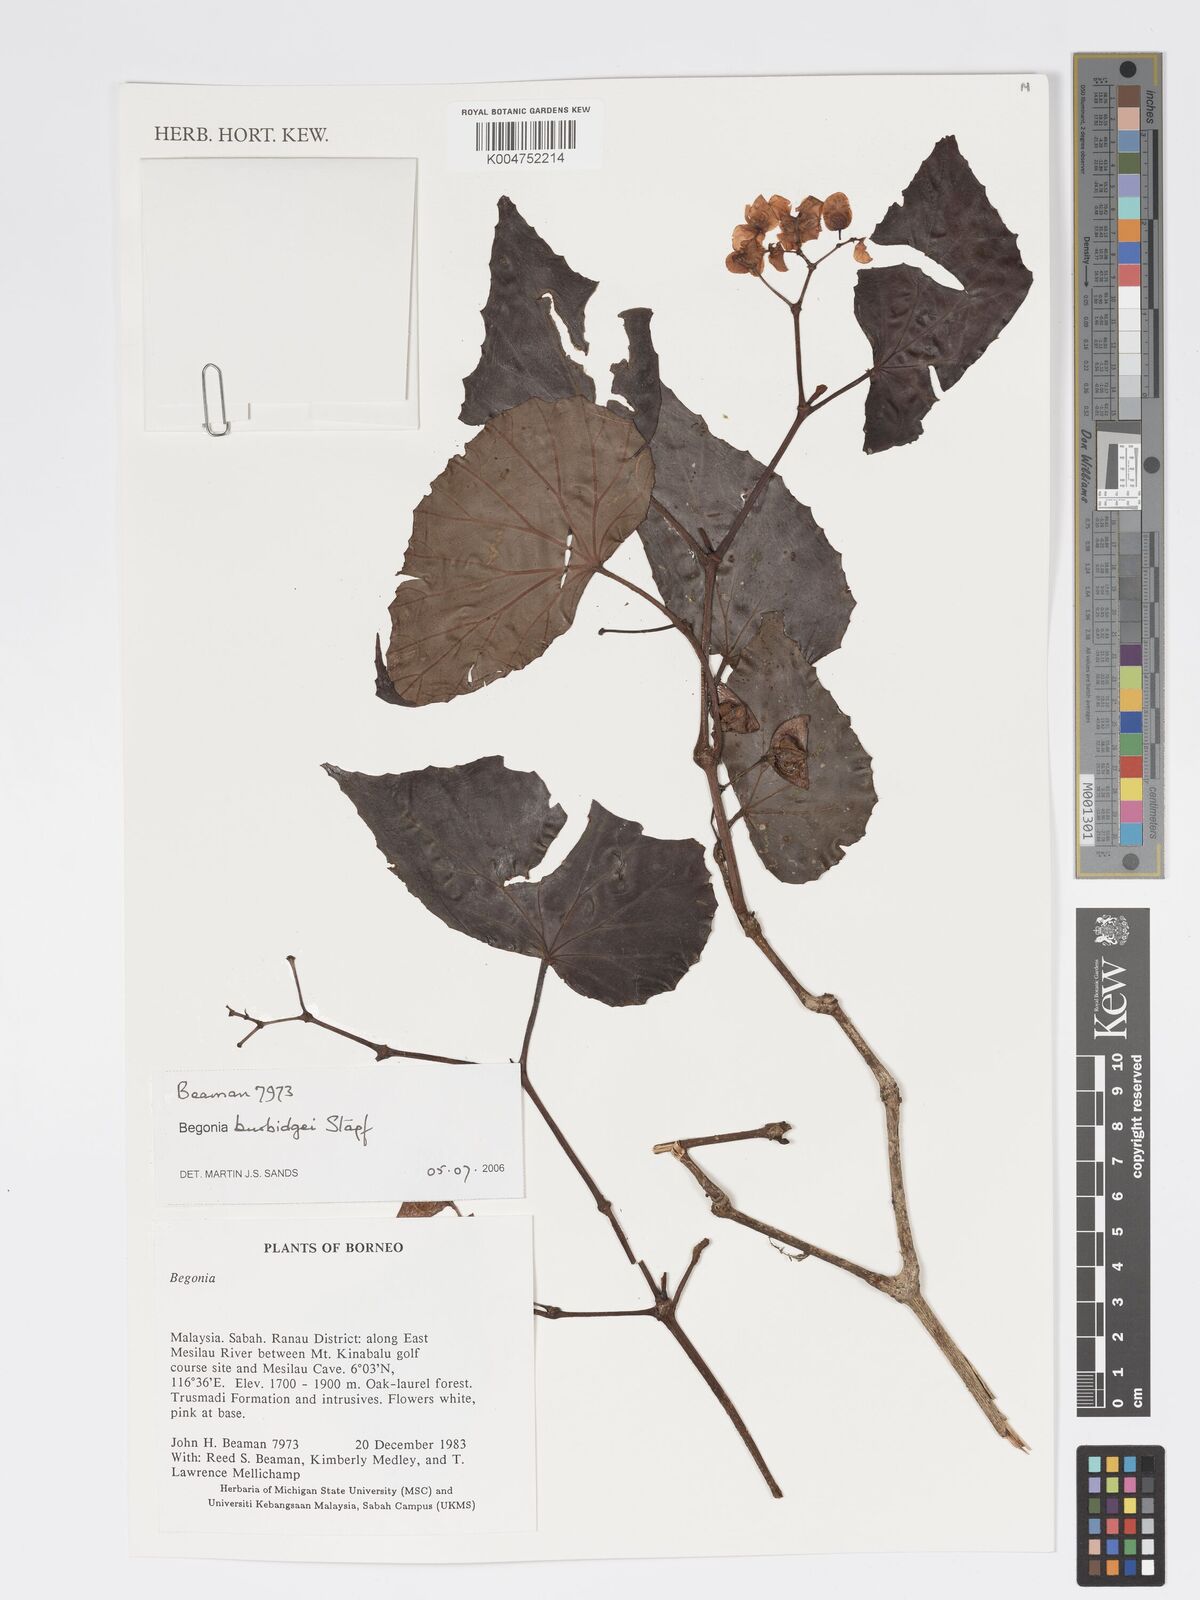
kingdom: Plantae
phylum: Tracheophyta
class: Magnoliopsida
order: Cucurbitales
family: Begoniaceae
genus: Begonia
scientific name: Begonia burbidgei
